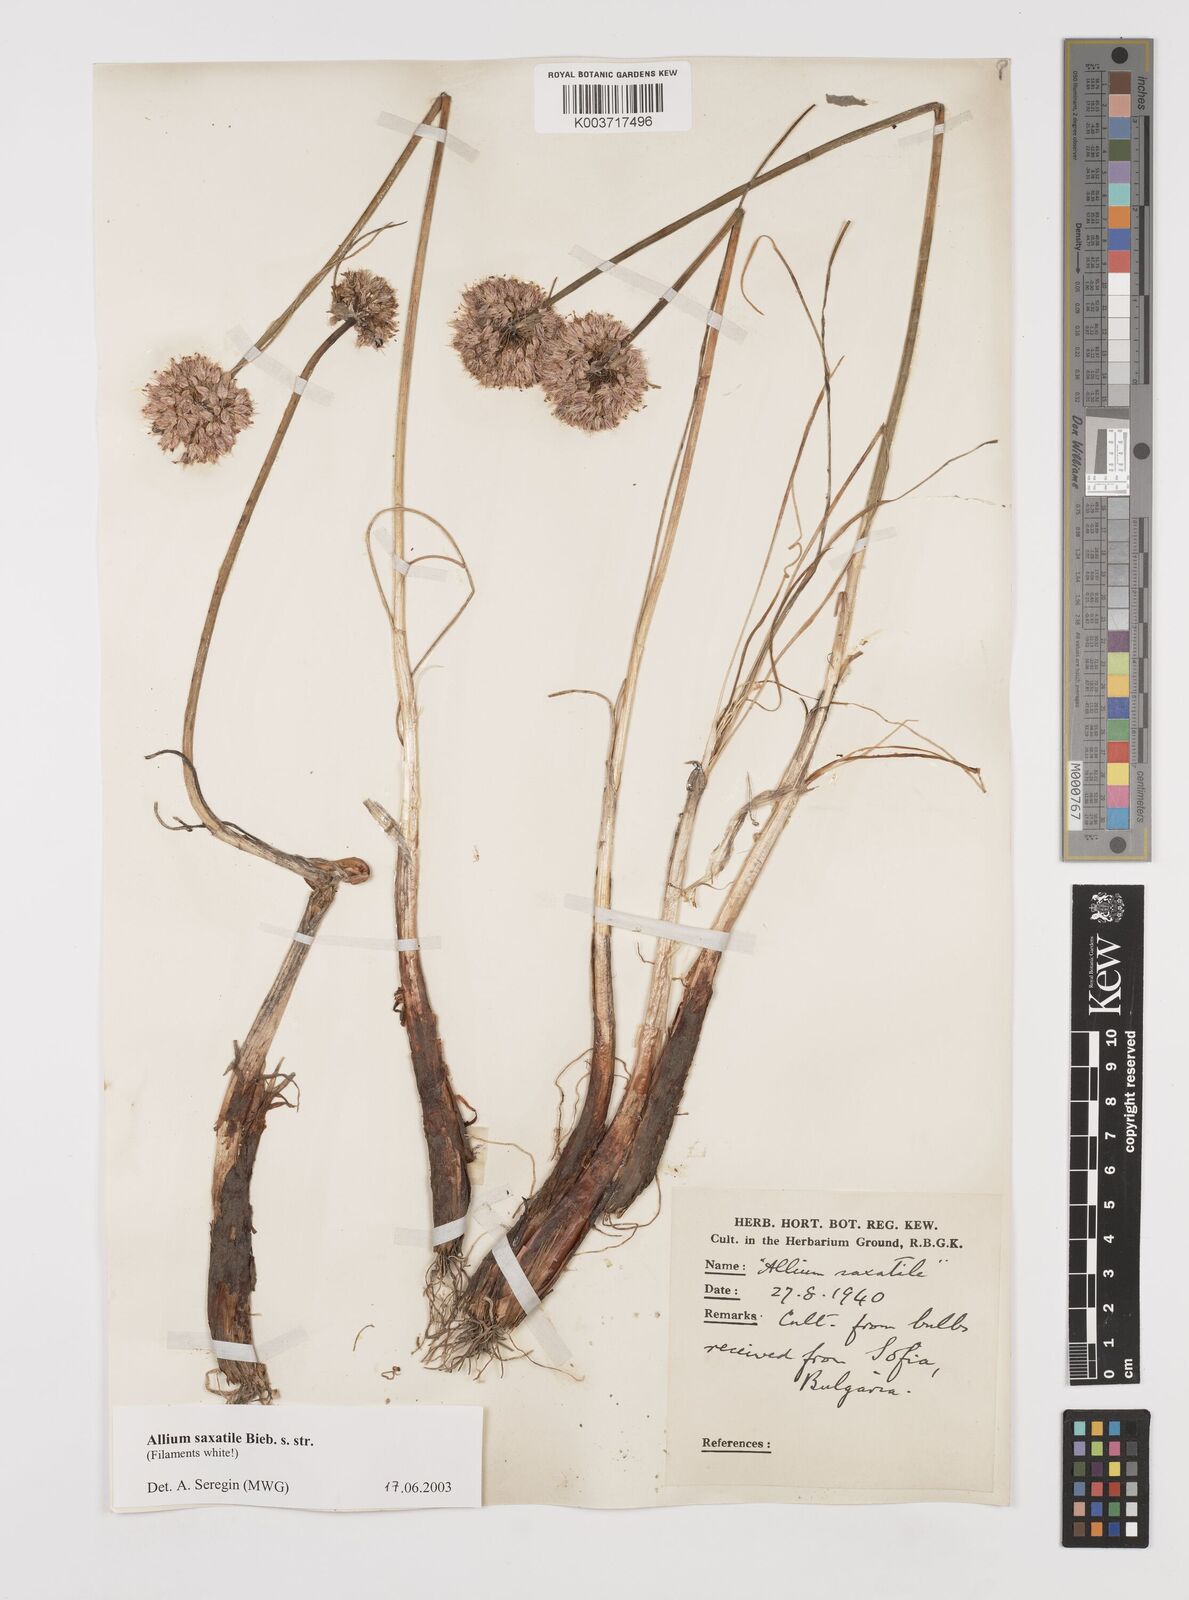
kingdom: Plantae
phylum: Tracheophyta
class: Liliopsida
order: Asparagales
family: Amaryllidaceae
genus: Allium
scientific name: Allium saxatile
